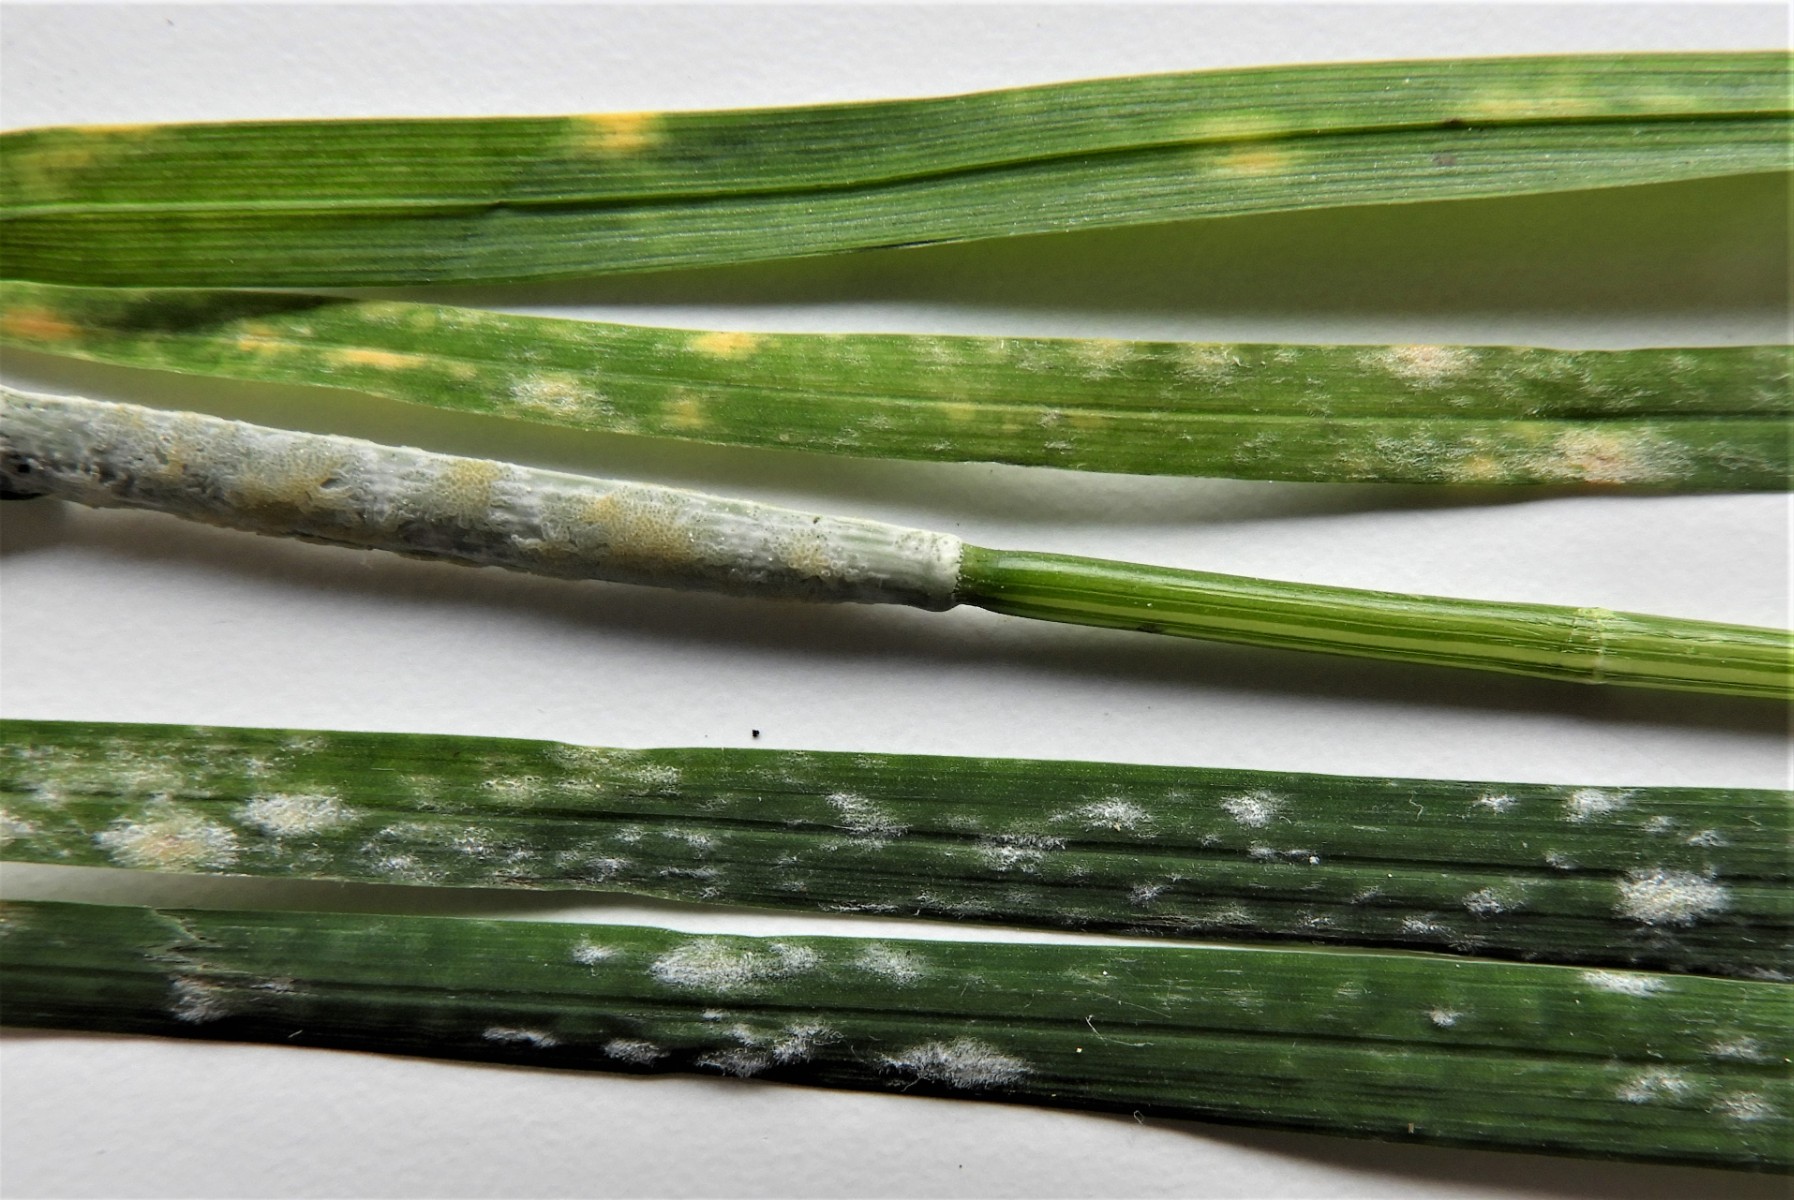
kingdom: Fungi
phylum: Ascomycota
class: Sordariomycetes
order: Hypocreales
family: Clavicipitaceae
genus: Epichloe
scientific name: Epichloe typhina
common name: almindelig kernerør
